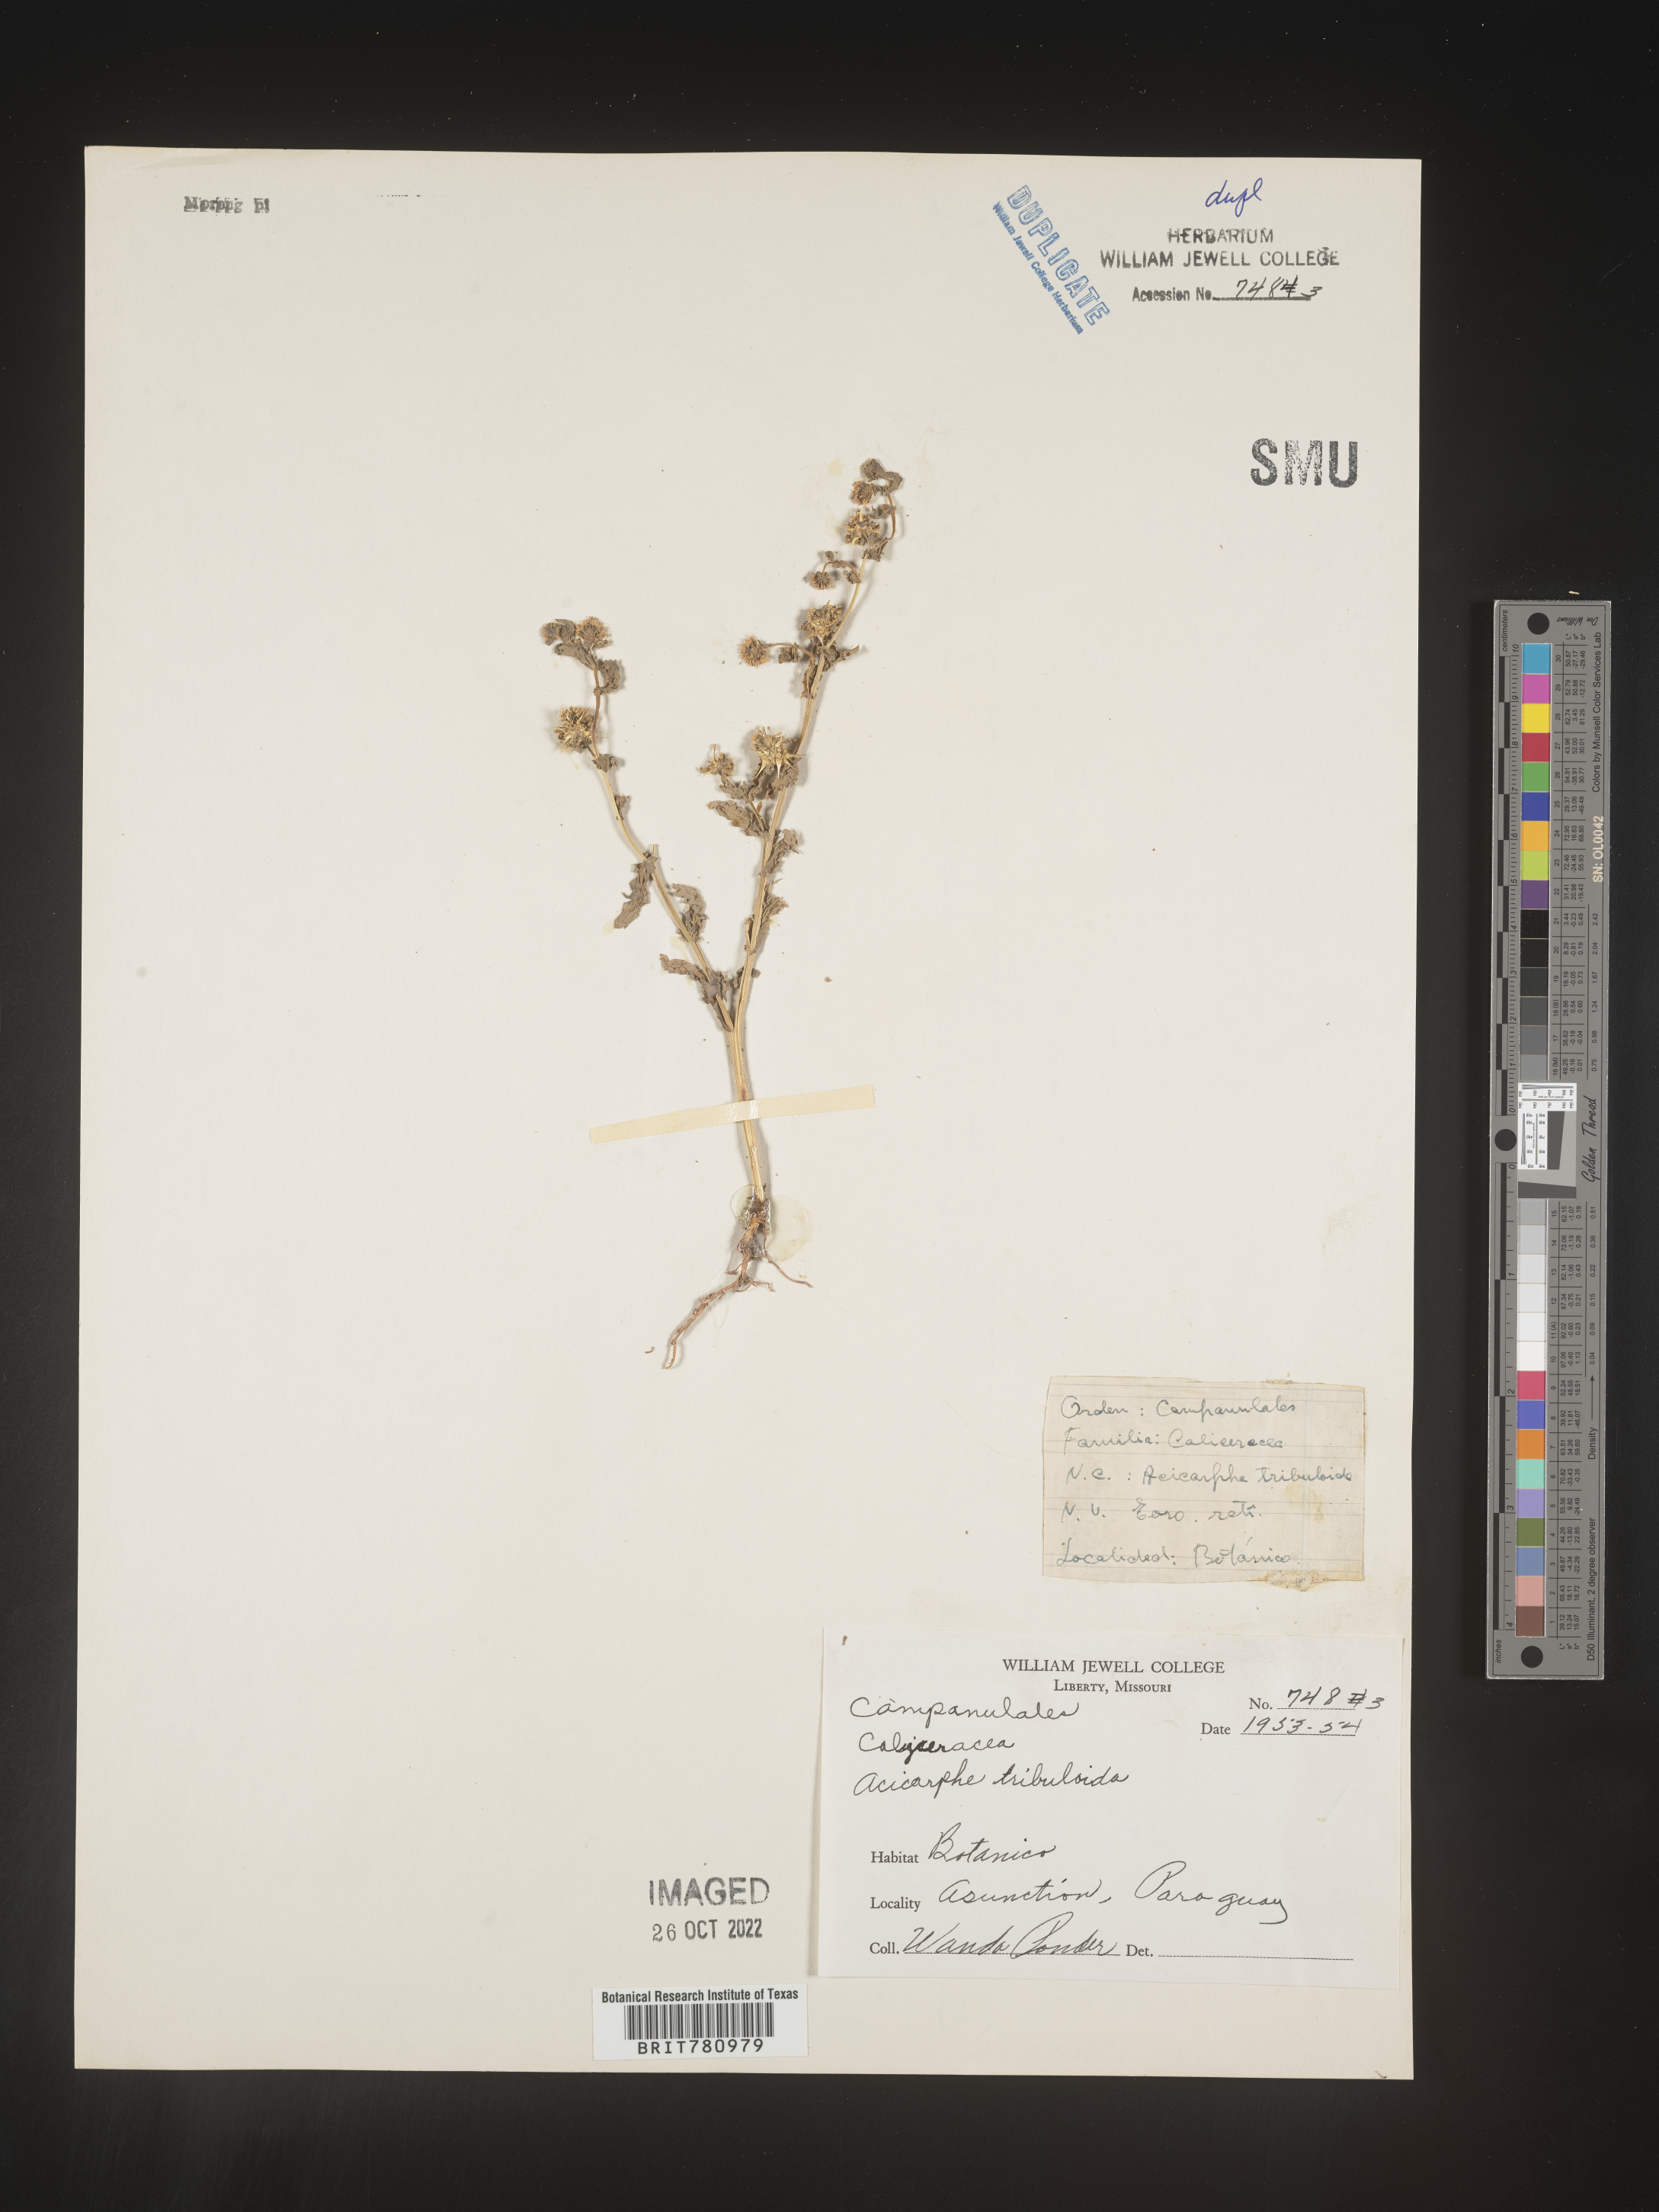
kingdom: Plantae
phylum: Tracheophyta
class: Magnoliopsida
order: Asterales
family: Calyceraceae
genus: Acicarpha
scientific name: Acicarpha
